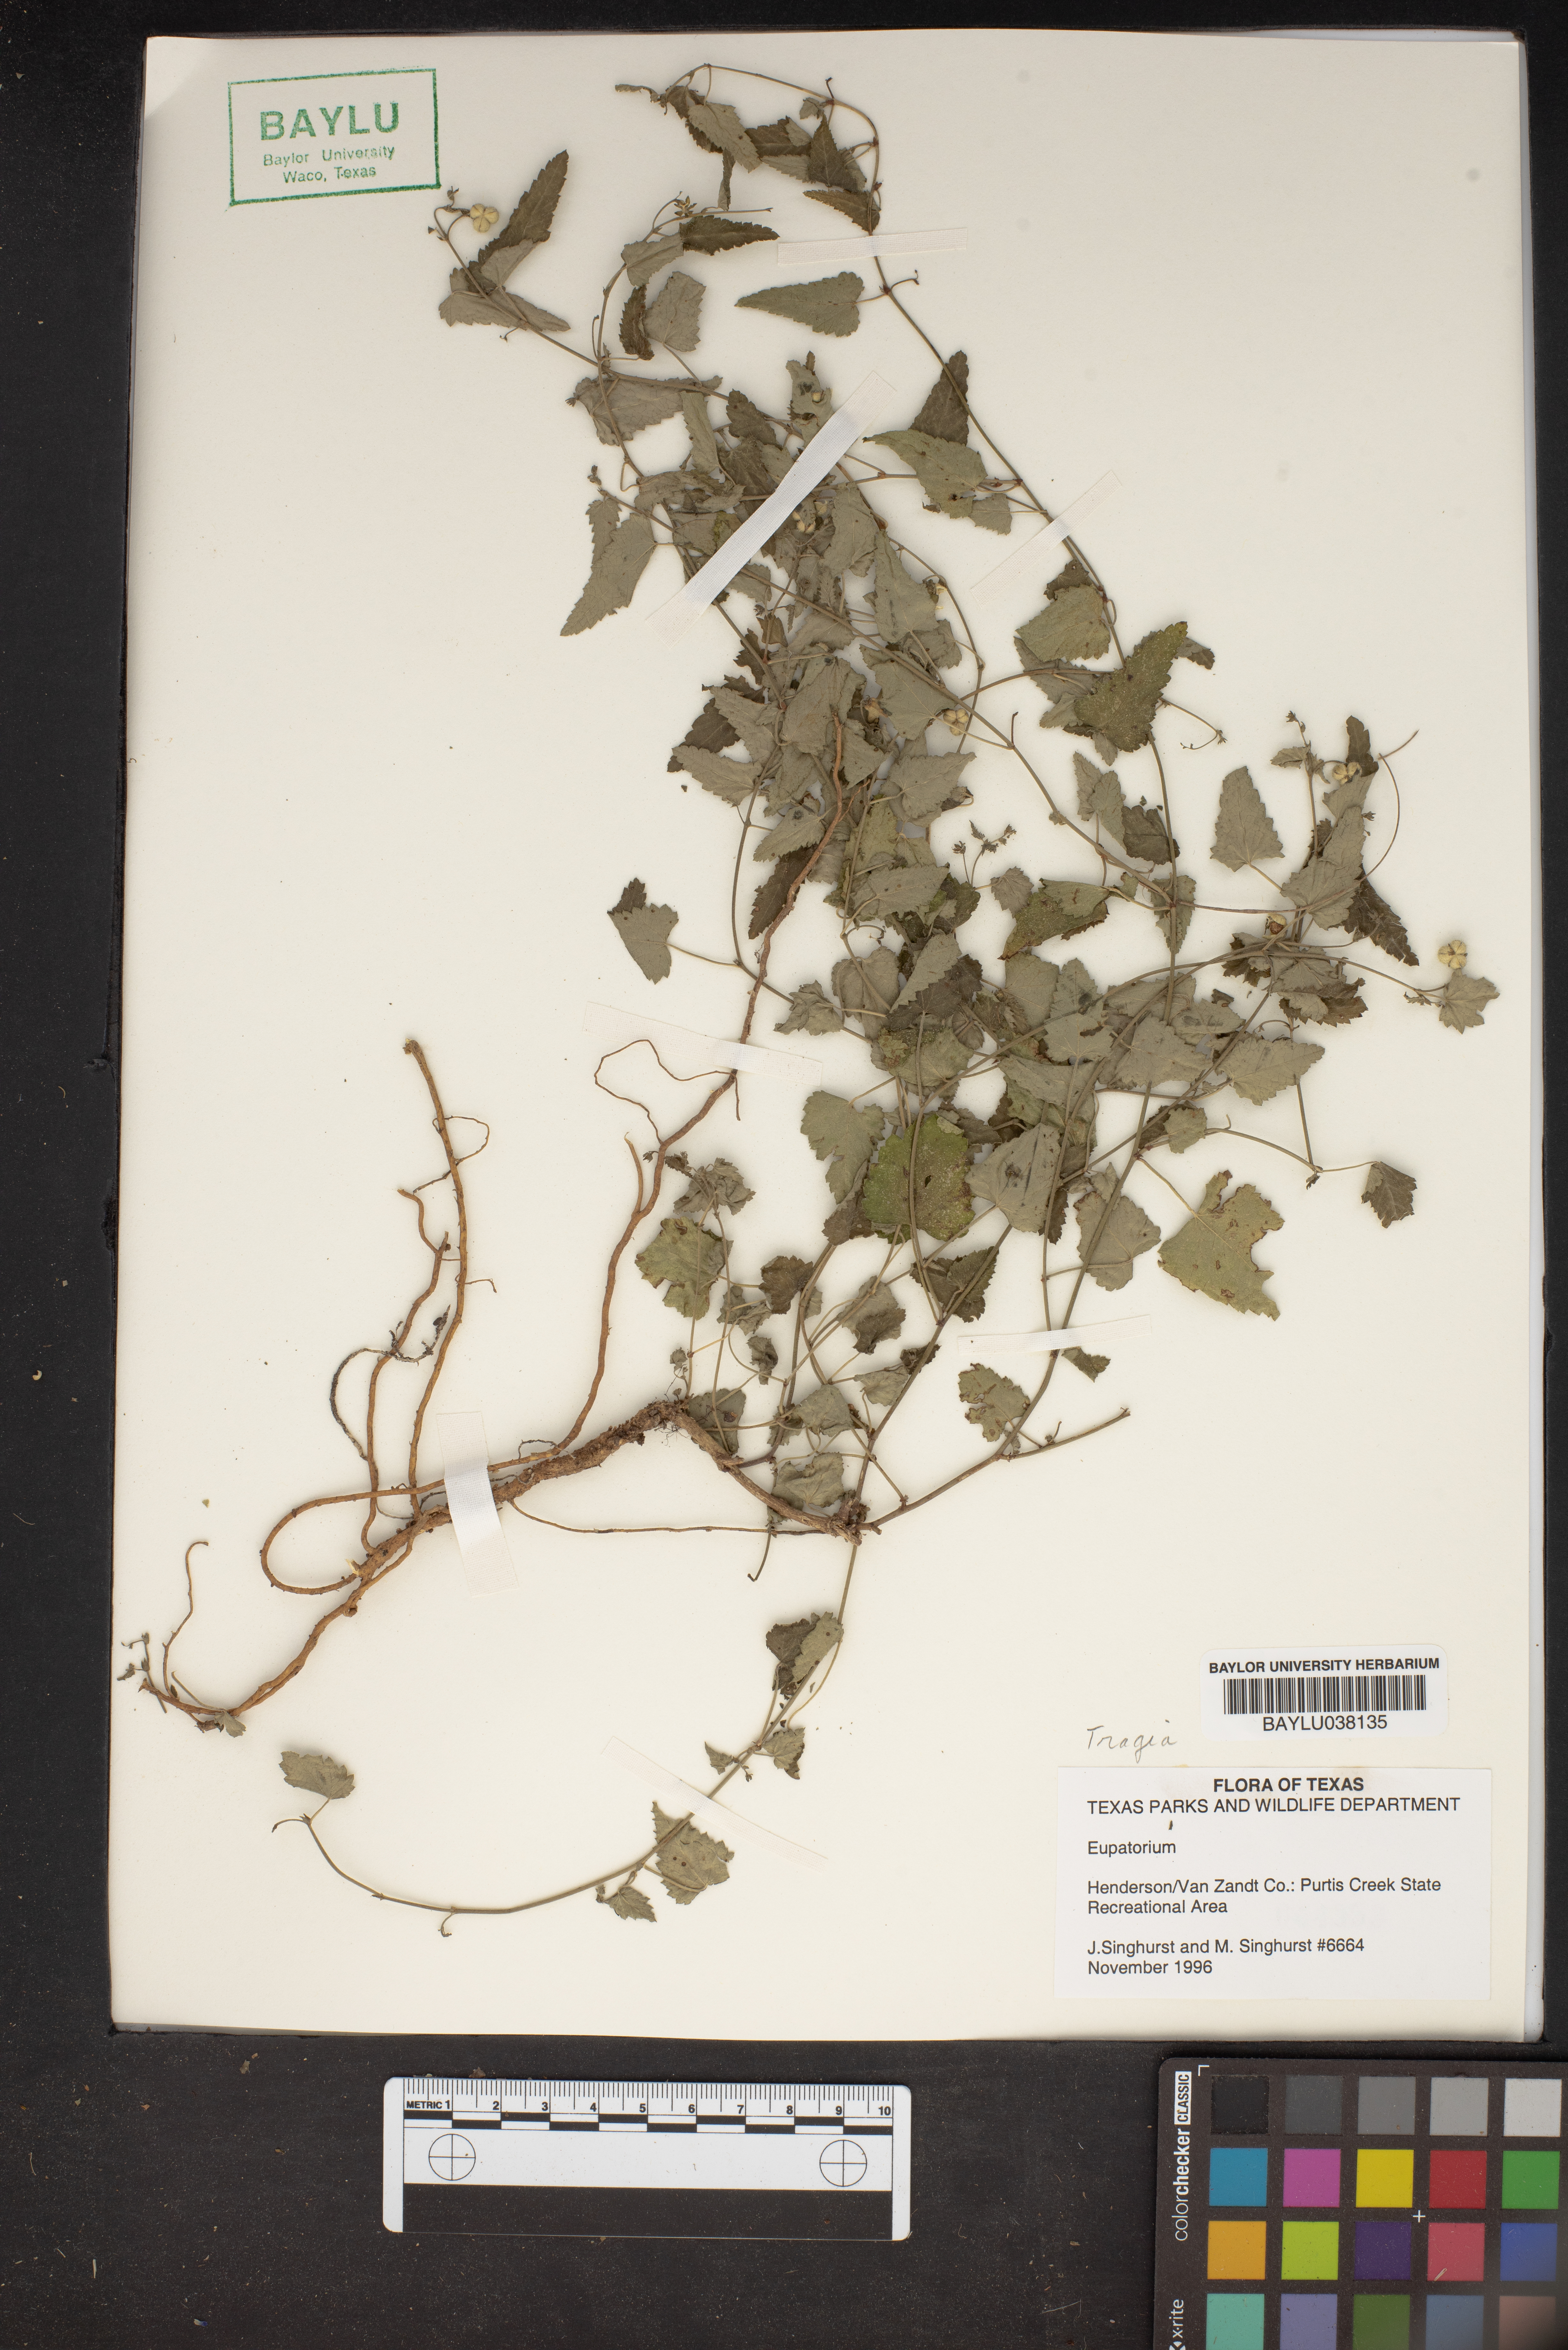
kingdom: Plantae
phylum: Tracheophyta
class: Magnoliopsida
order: Asterales
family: Asteraceae
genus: Eupatorium
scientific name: Eupatorium
